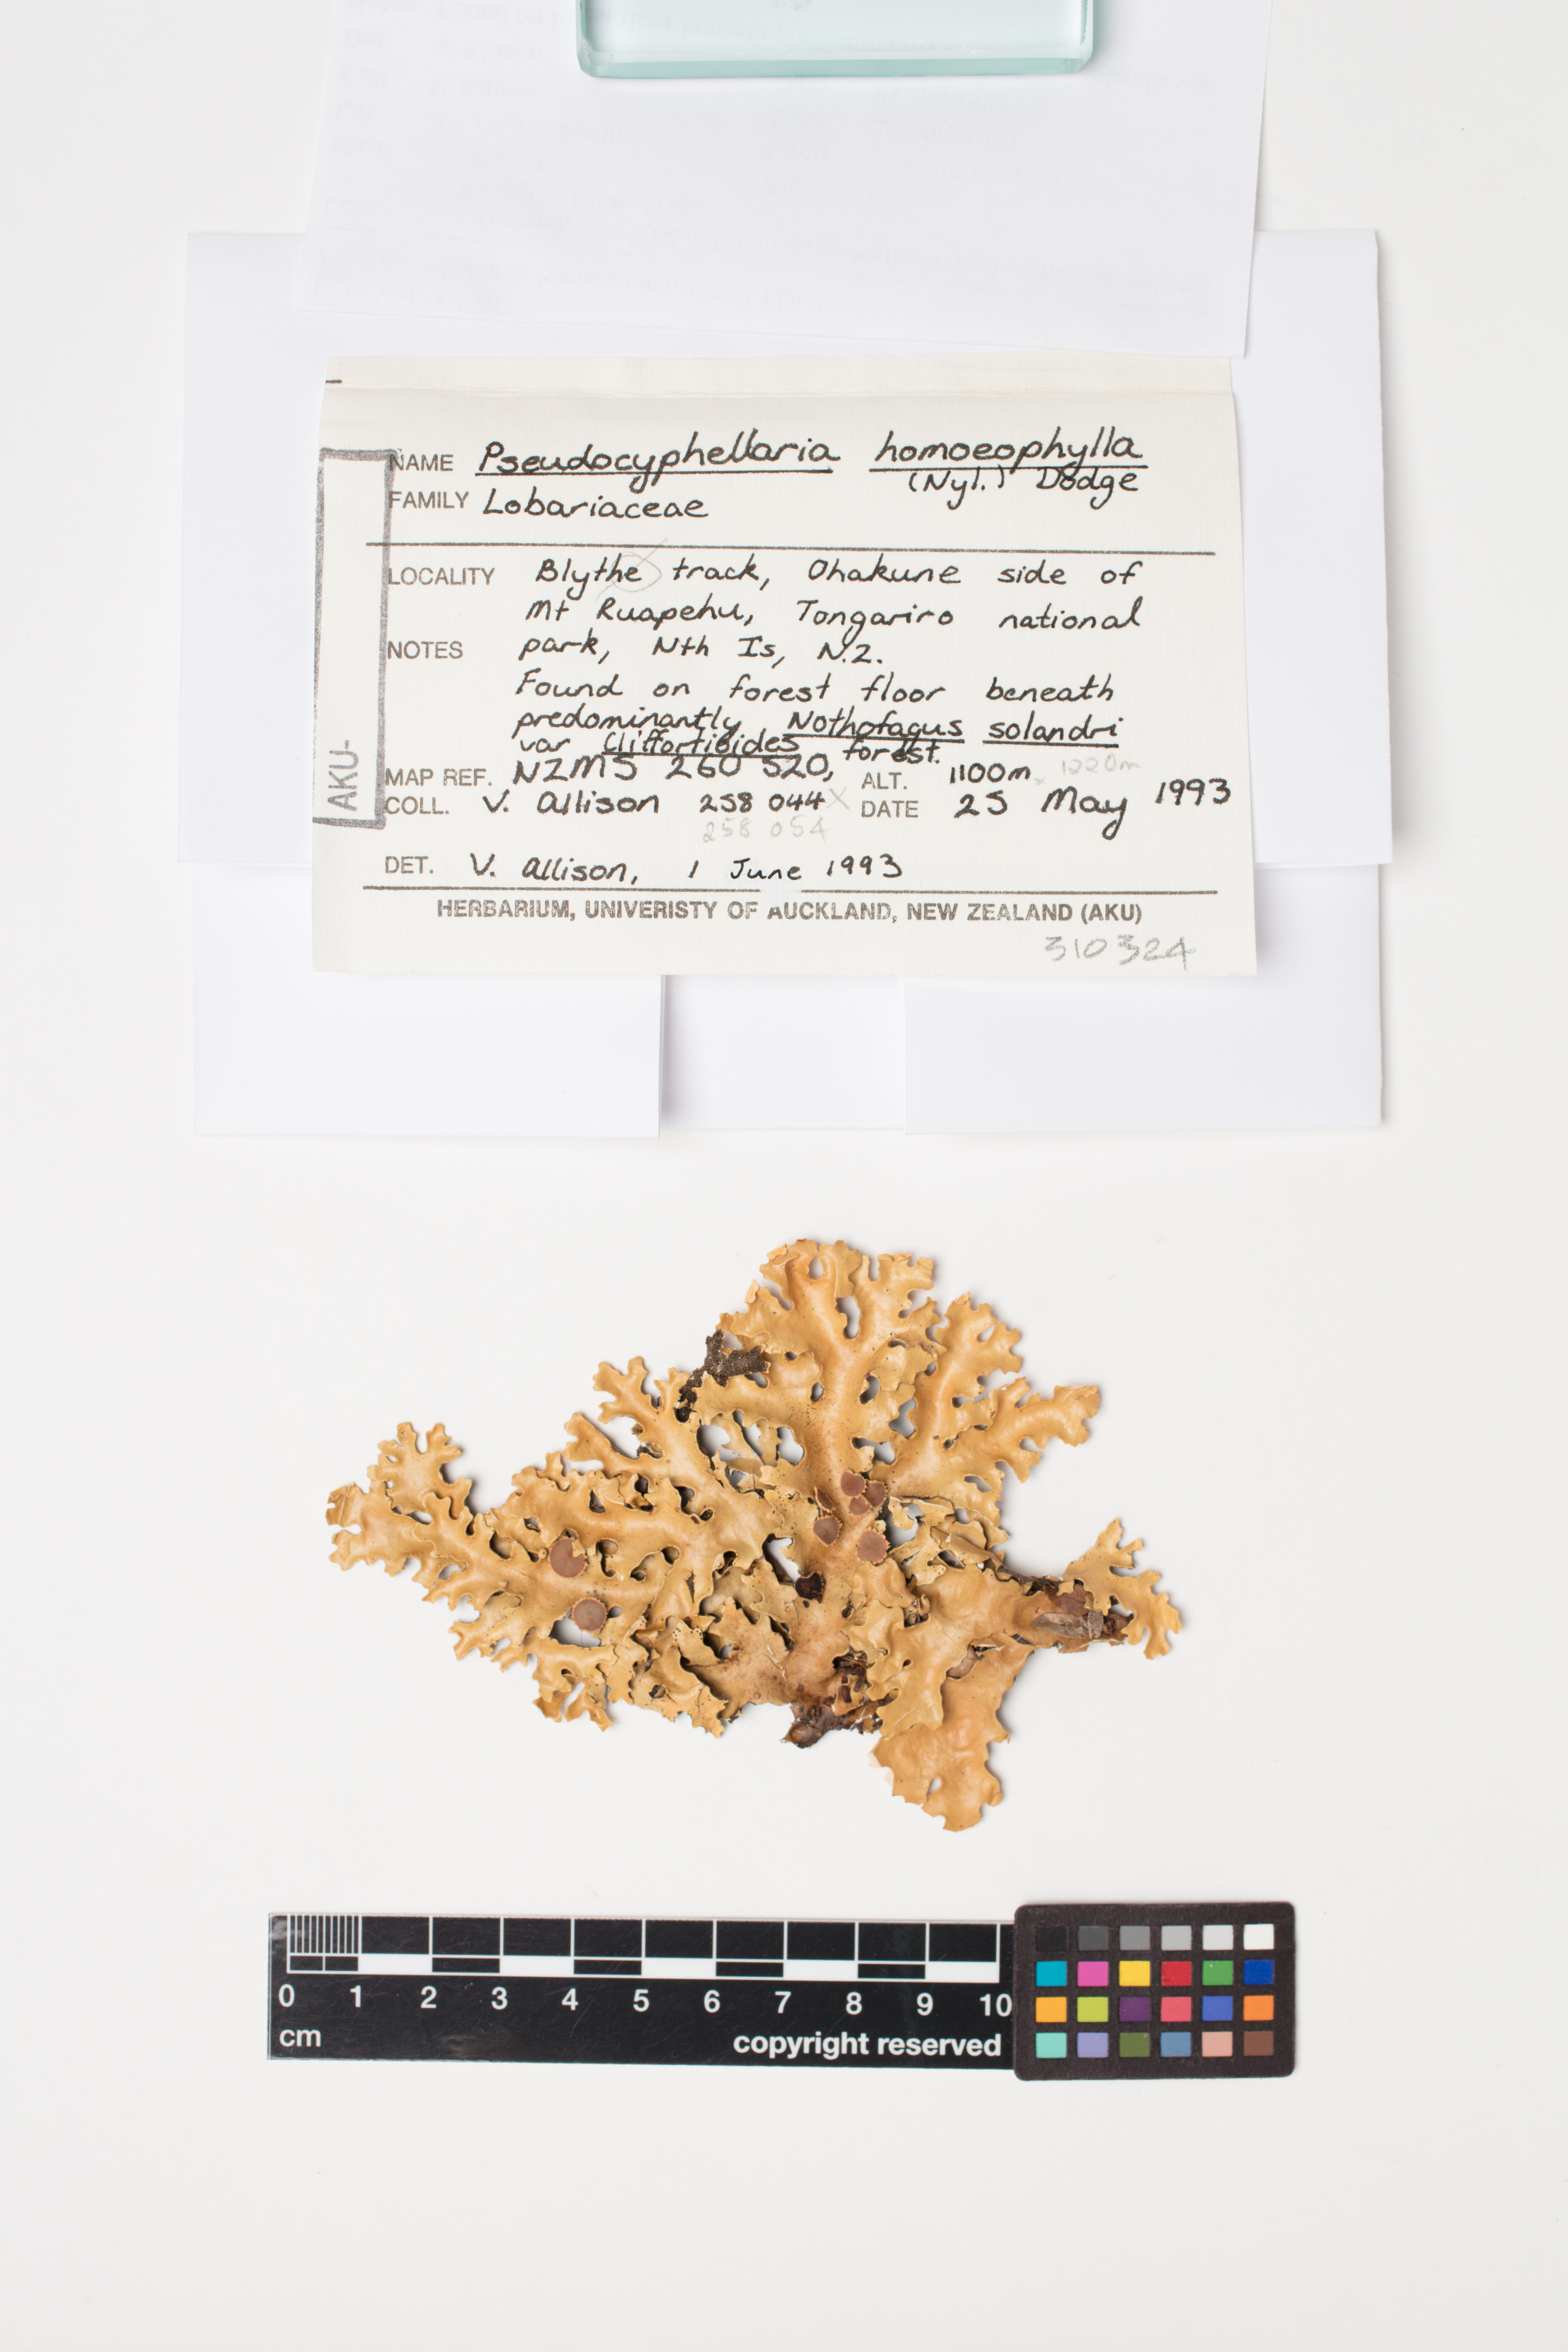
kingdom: Fungi
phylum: Ascomycota
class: Lecanoromycetes
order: Peltigerales
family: Lobariaceae
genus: Pseudocyphellaria
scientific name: Pseudocyphellaria homeophylla
